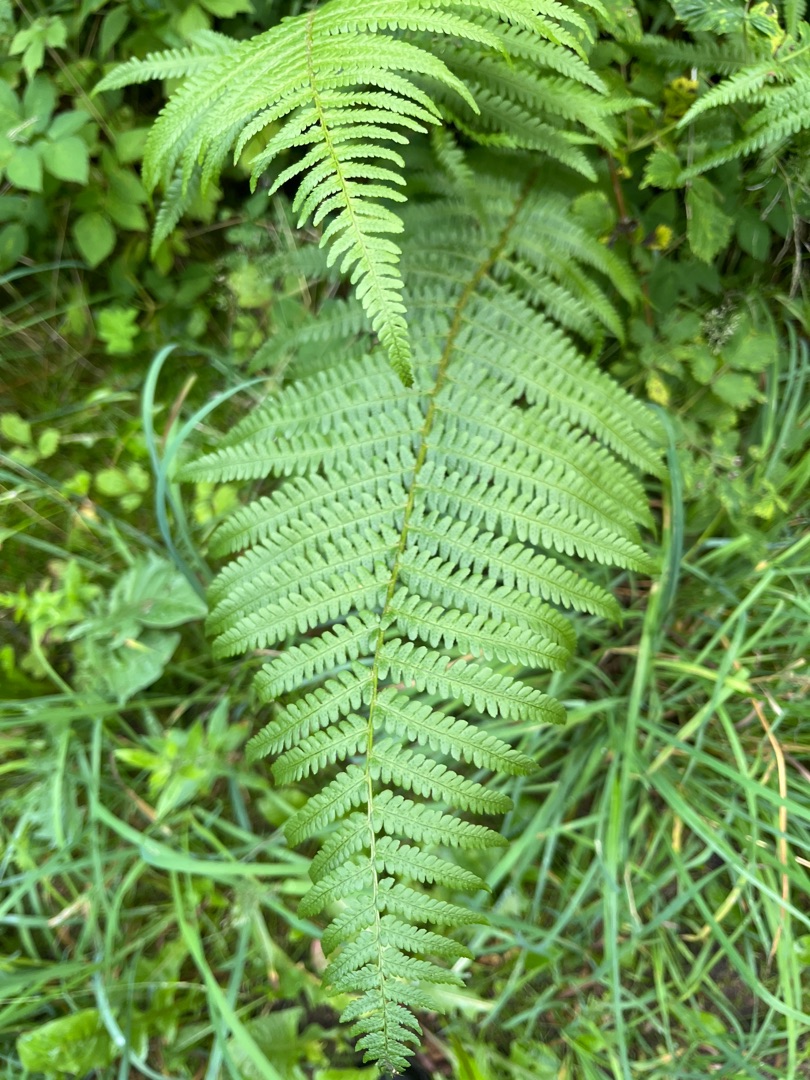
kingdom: Plantae
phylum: Tracheophyta
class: Polypodiopsida
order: Polypodiales
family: Dryopteridaceae
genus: Dryopteris
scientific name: Dryopteris filix-mas
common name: Almindelig mangeløv
